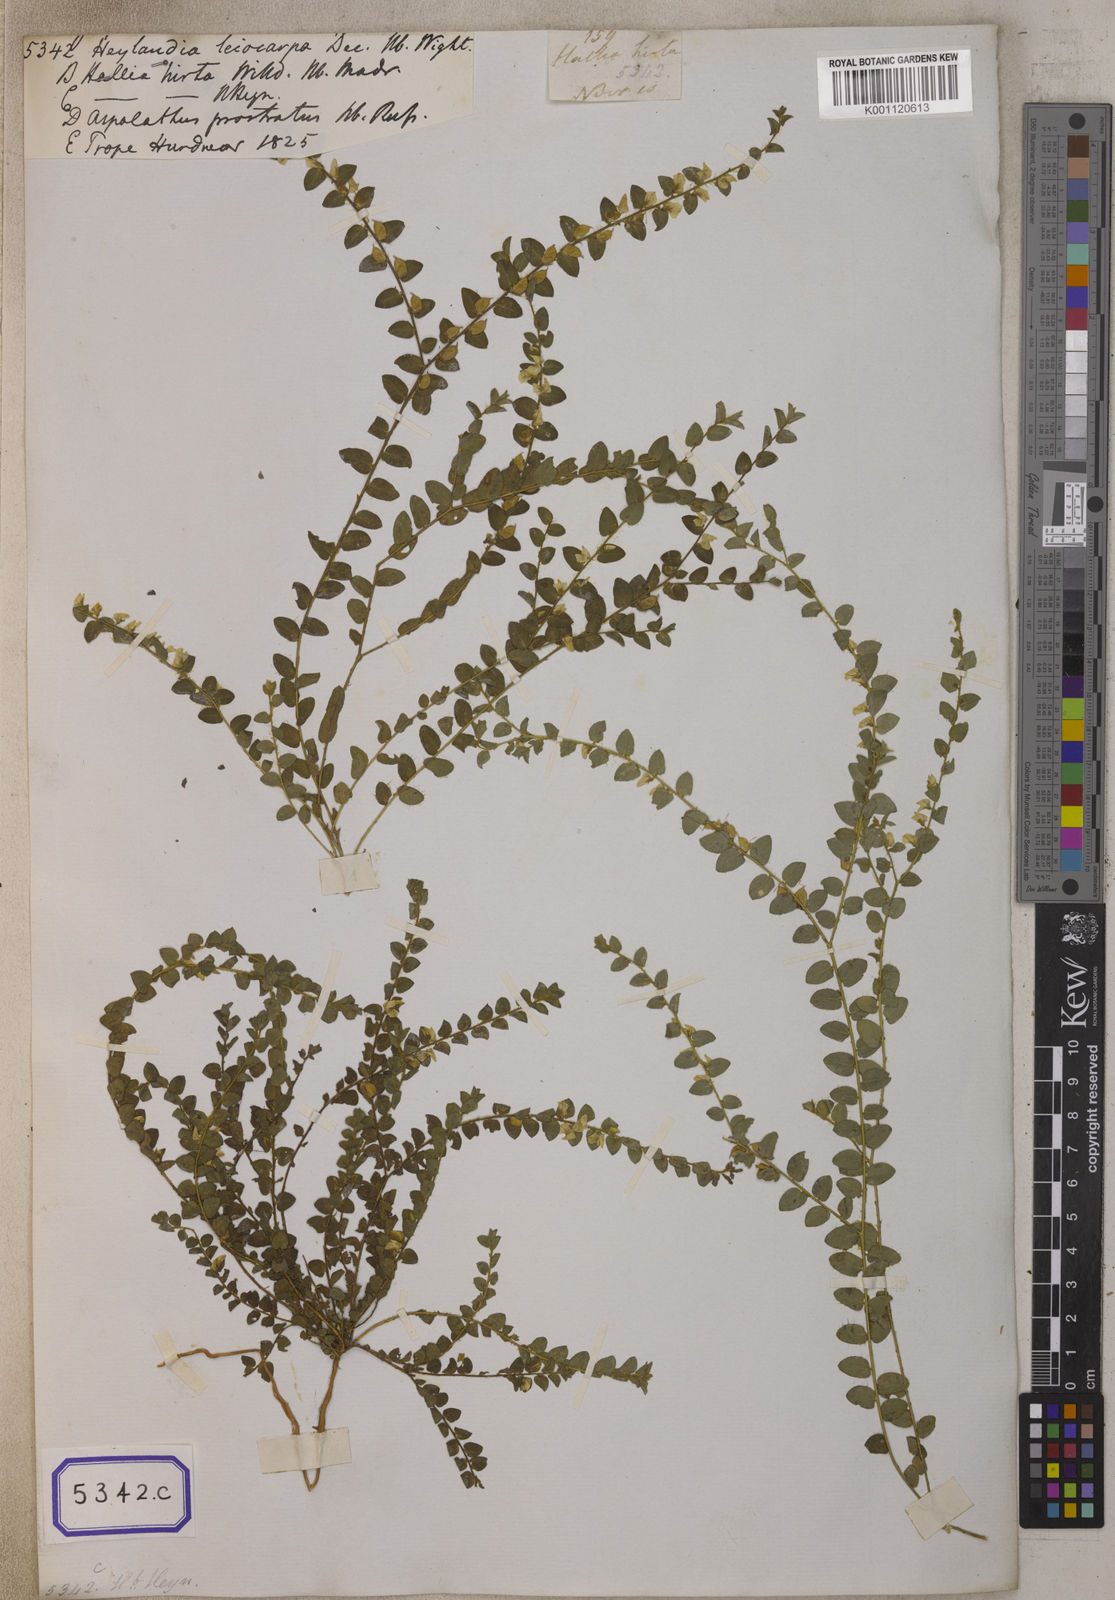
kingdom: Plantae
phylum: Tracheophyta
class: Magnoliopsida
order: Fabales
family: Fabaceae
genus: Crotalaria
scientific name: Crotalaria hebecarpa
